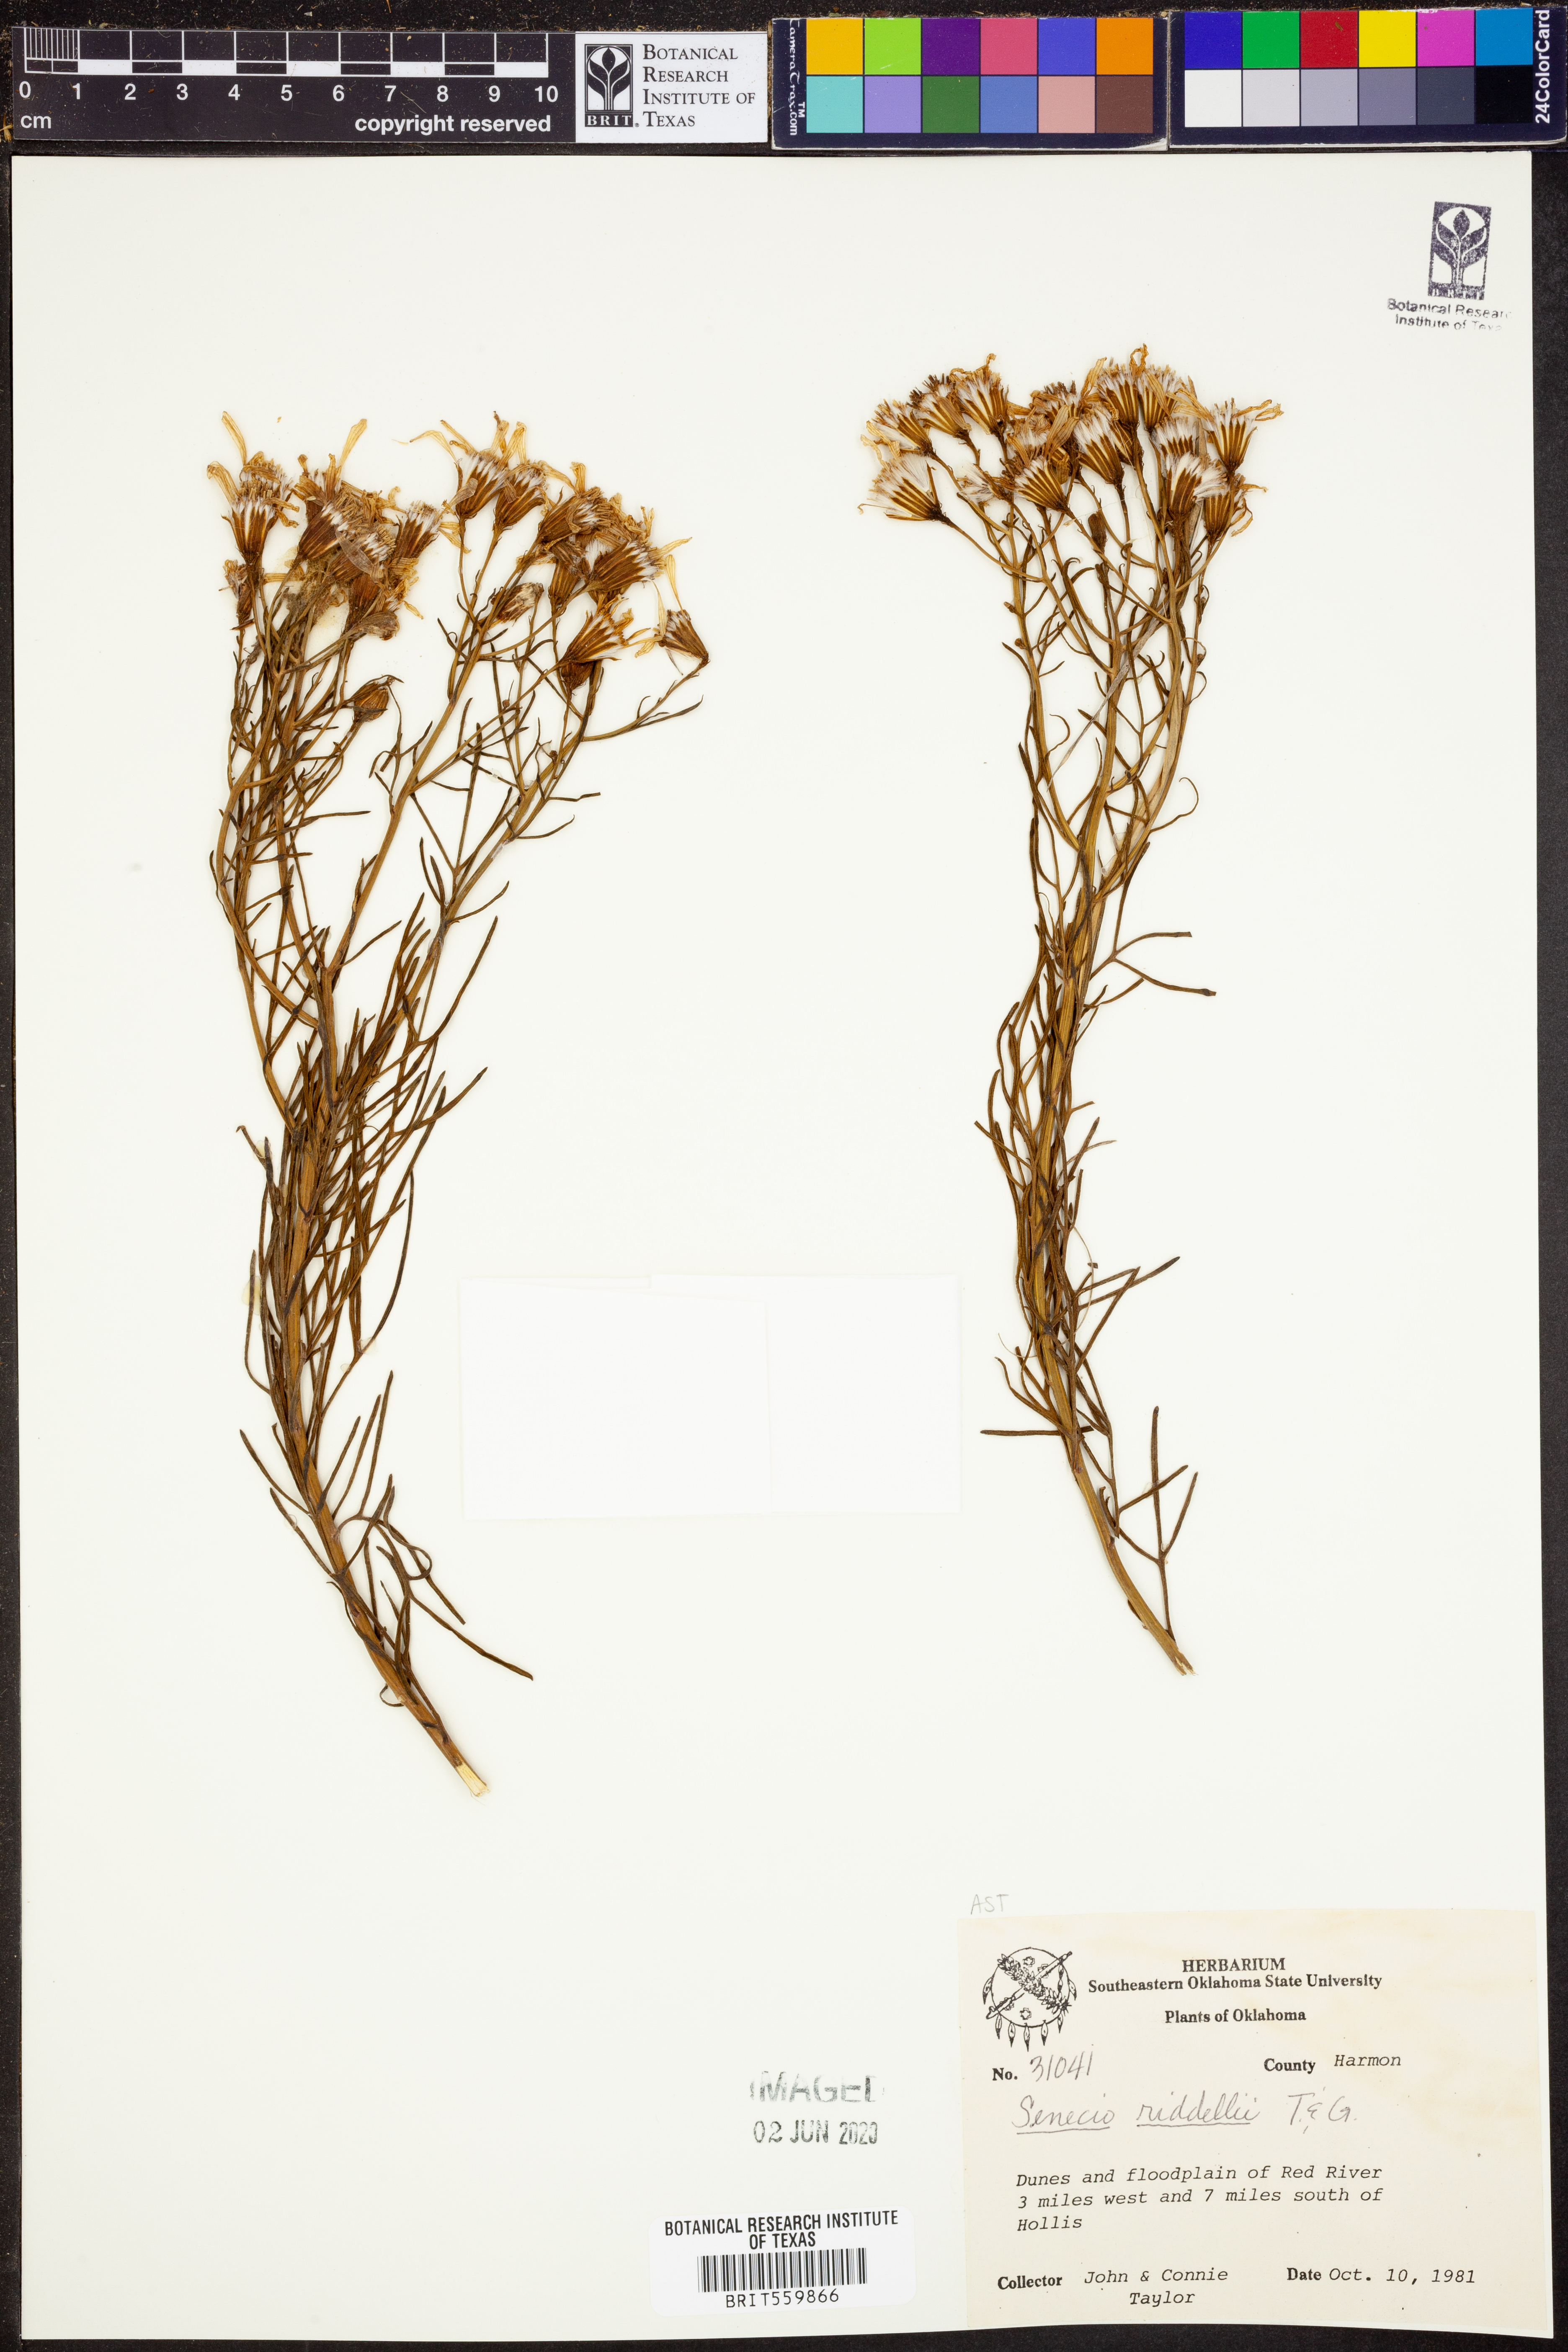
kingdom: Plantae
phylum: Tracheophyta
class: Magnoliopsida
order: Asterales
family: Asteraceae
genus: Senecio
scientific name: Senecio riddellii
